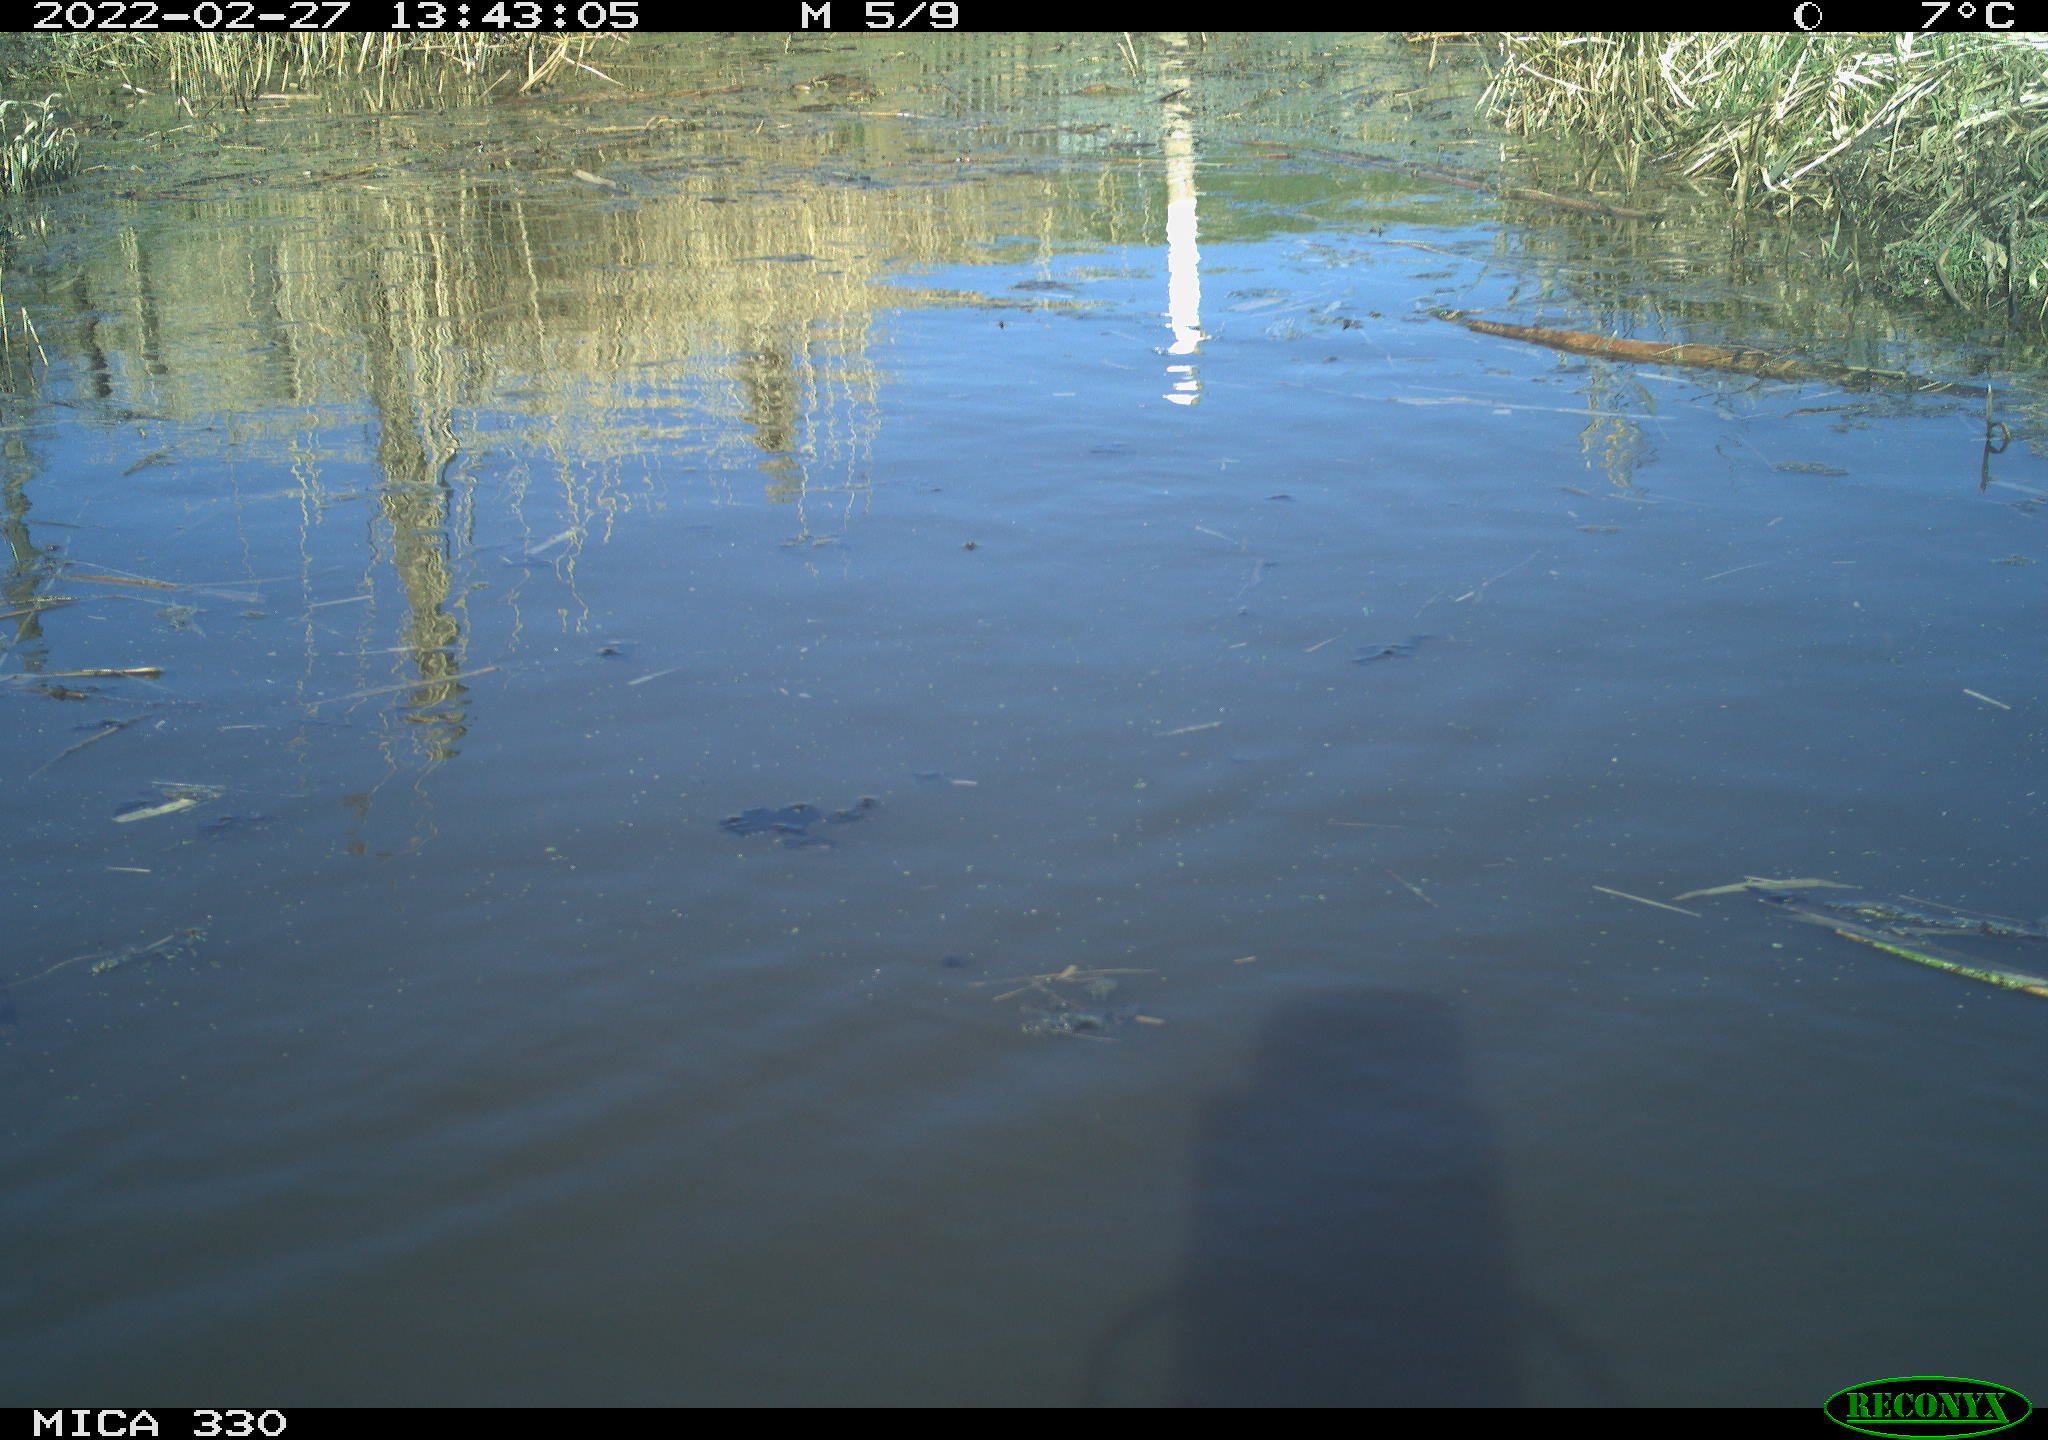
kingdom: Animalia
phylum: Chordata
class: Aves
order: Gruiformes
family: Rallidae
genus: Fulica
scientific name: Fulica atra
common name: Eurasian coot
